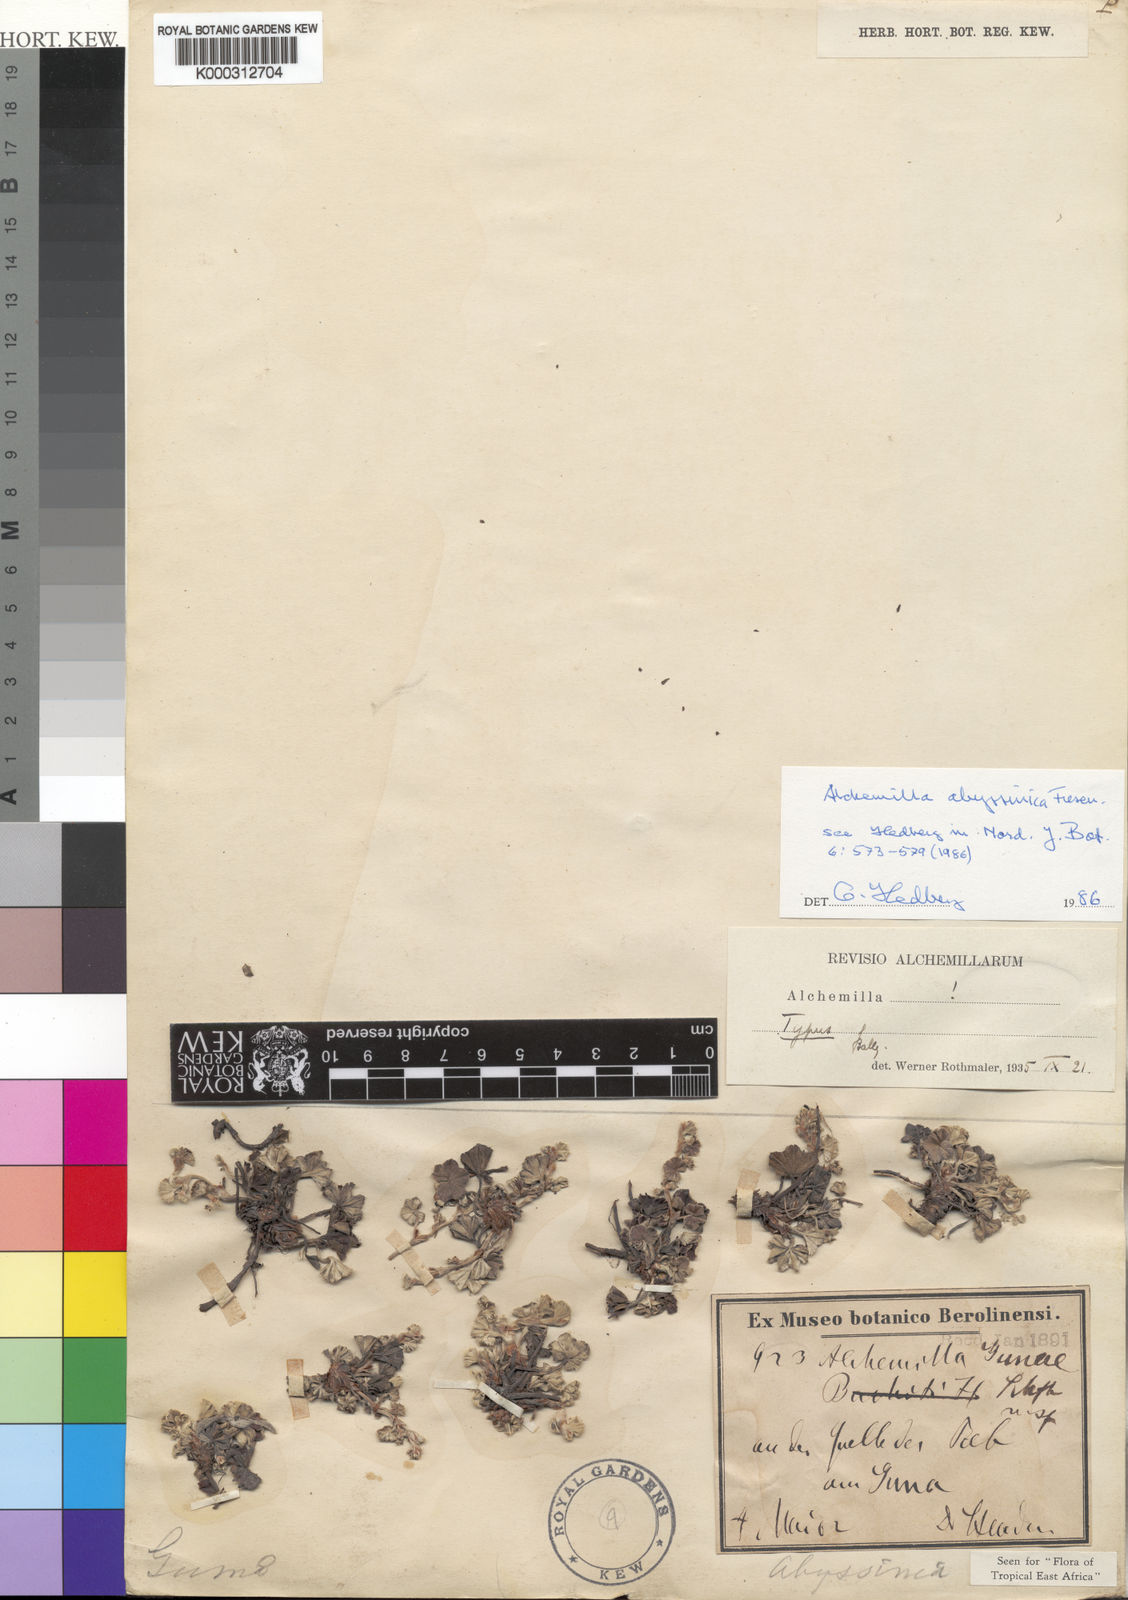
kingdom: Plantae
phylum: Tracheophyta
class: Magnoliopsida
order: Rosales
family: Rosaceae
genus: Alchemilla
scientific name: Alchemilla abyssinica
